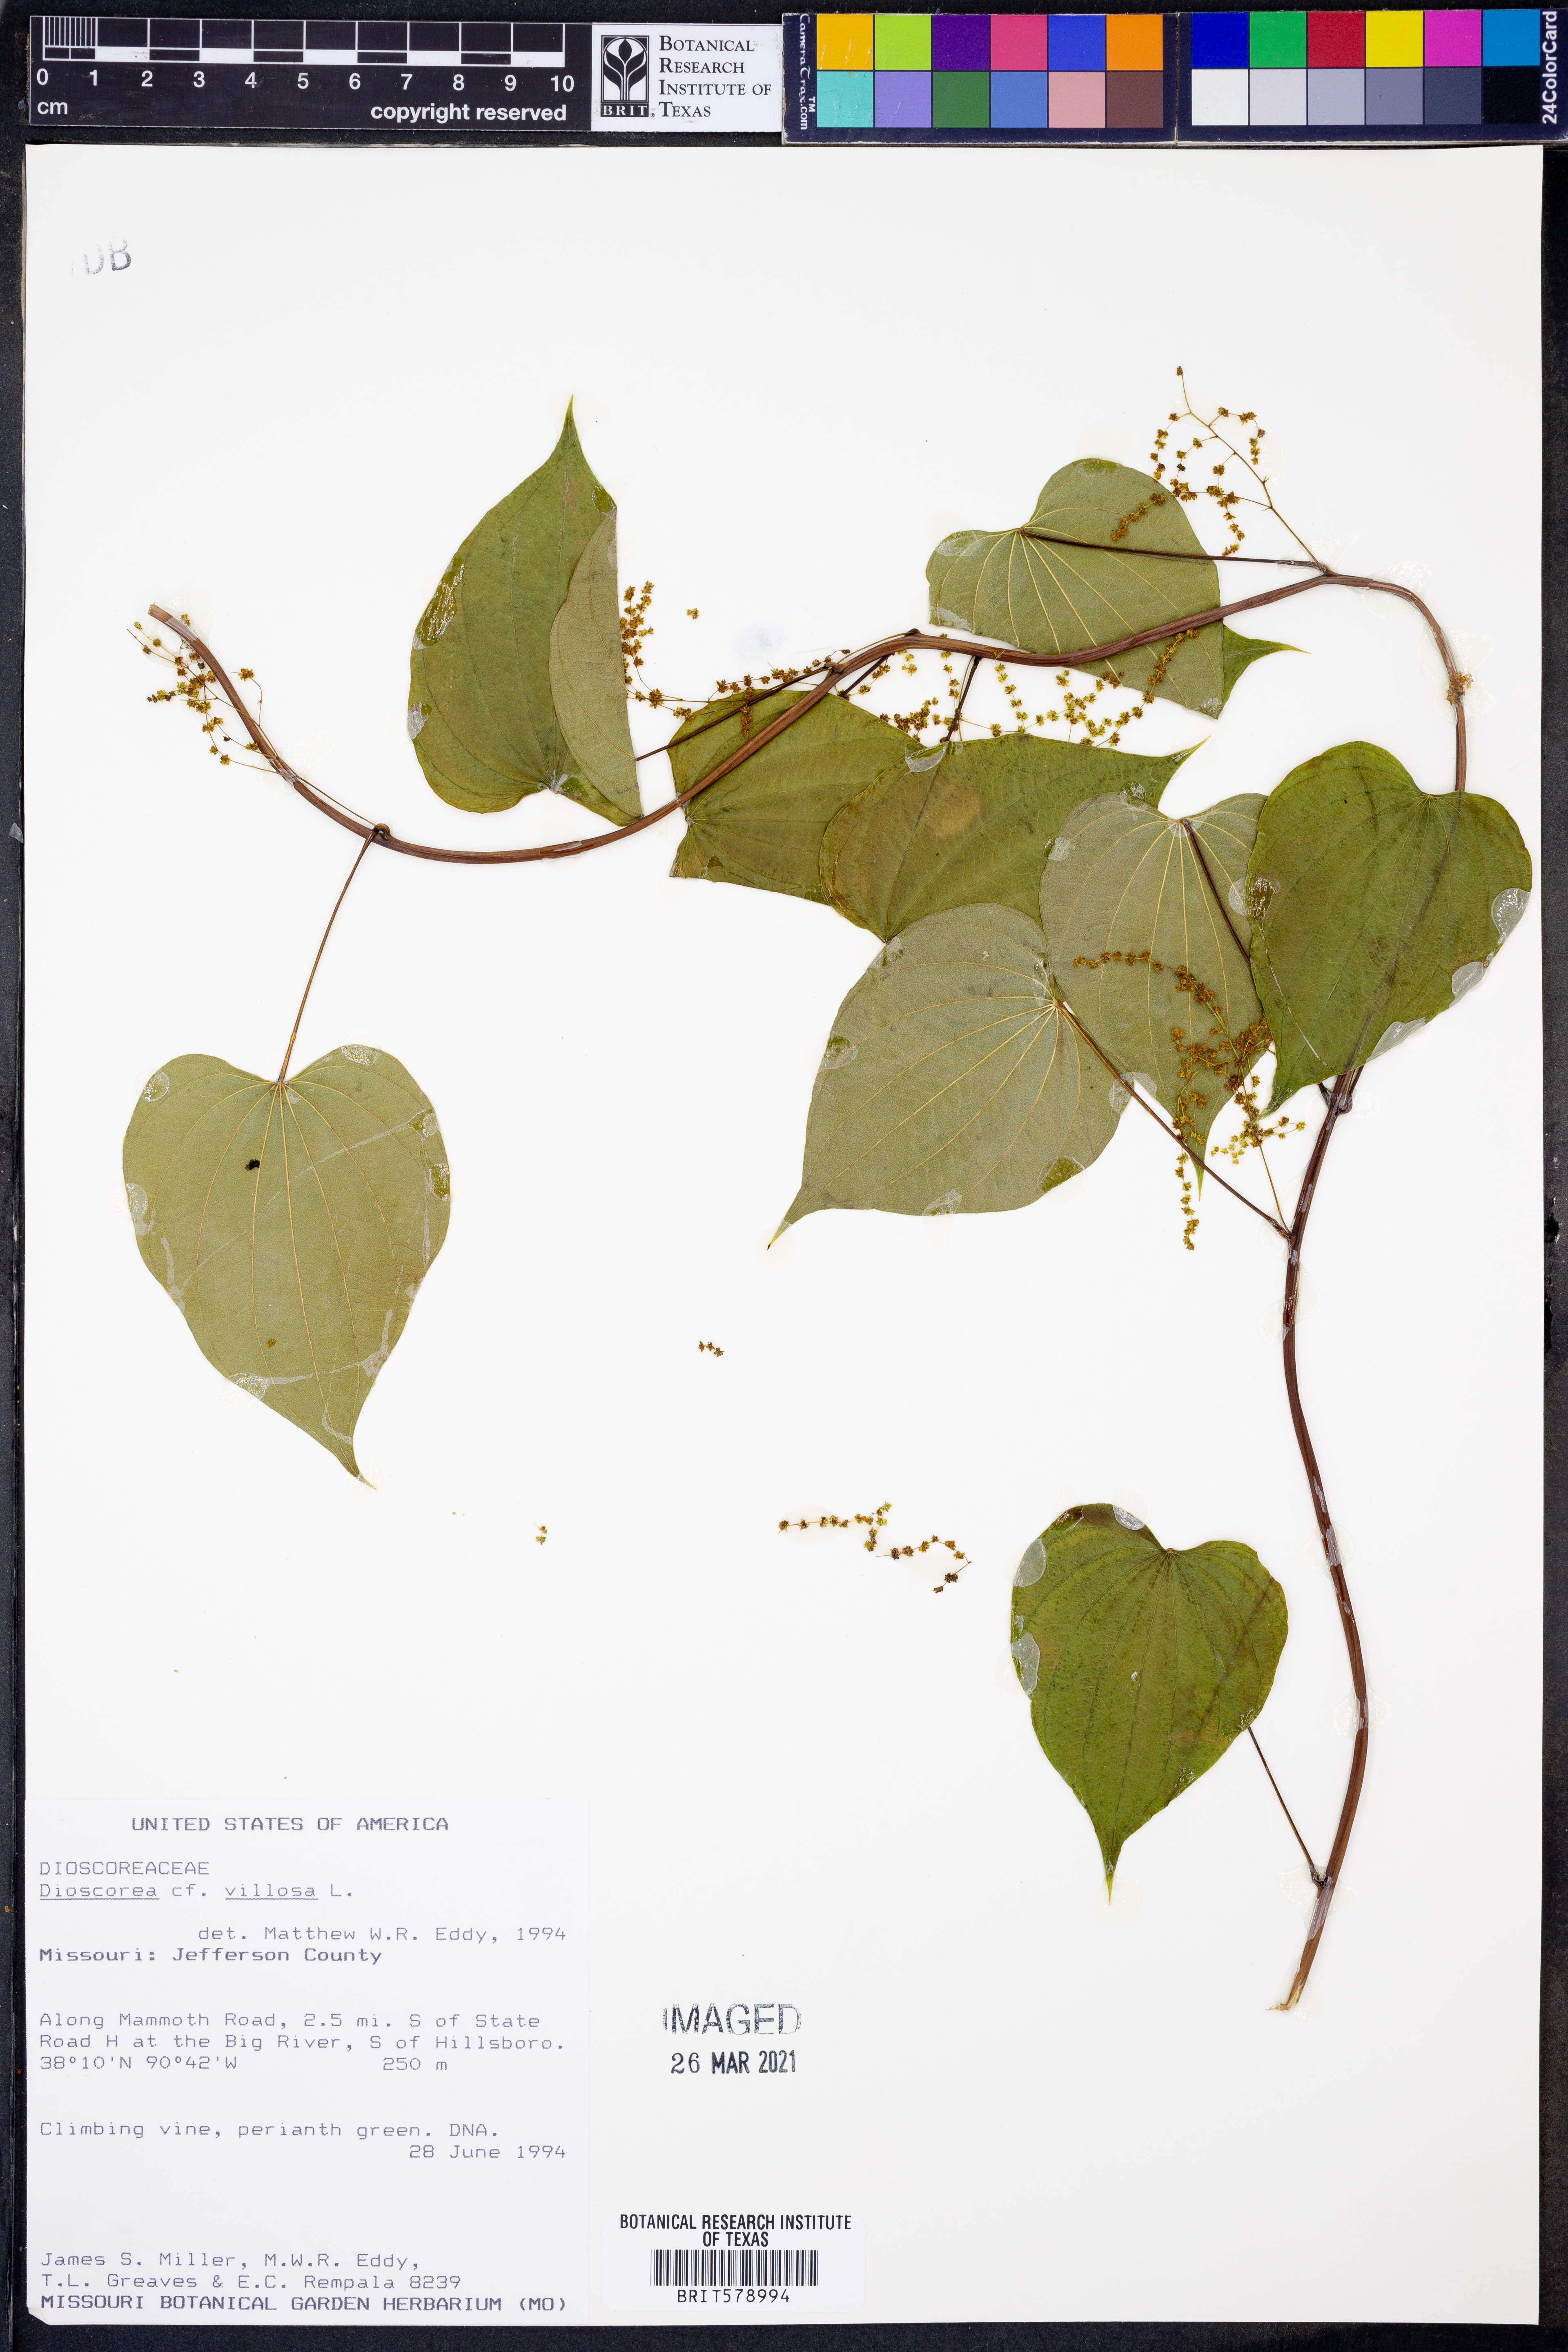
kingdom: Plantae
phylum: Tracheophyta
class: Liliopsida
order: Dioscoreales
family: Dioscoreaceae
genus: Dioscorea
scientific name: Dioscorea villosa
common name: Wild yam
